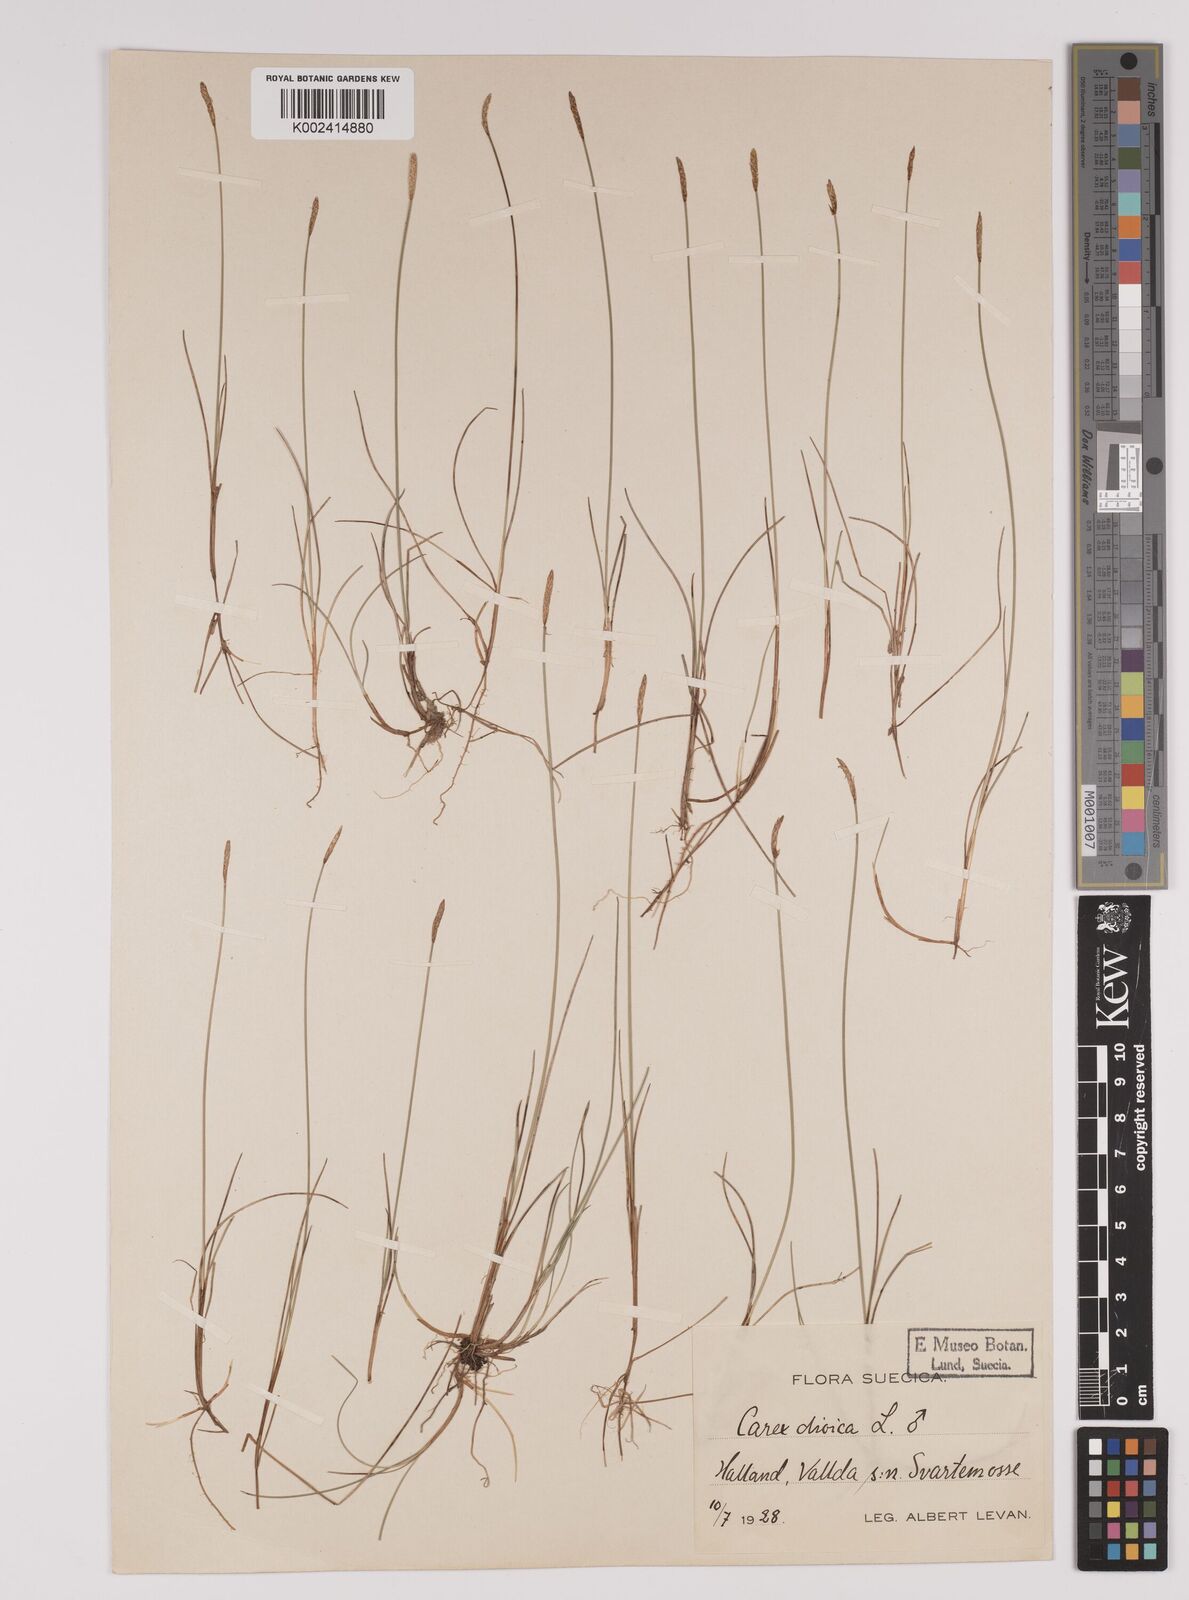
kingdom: Plantae
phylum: Tracheophyta
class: Liliopsida
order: Poales
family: Cyperaceae
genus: Carex
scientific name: Carex dioica
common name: Dioecious sedge
